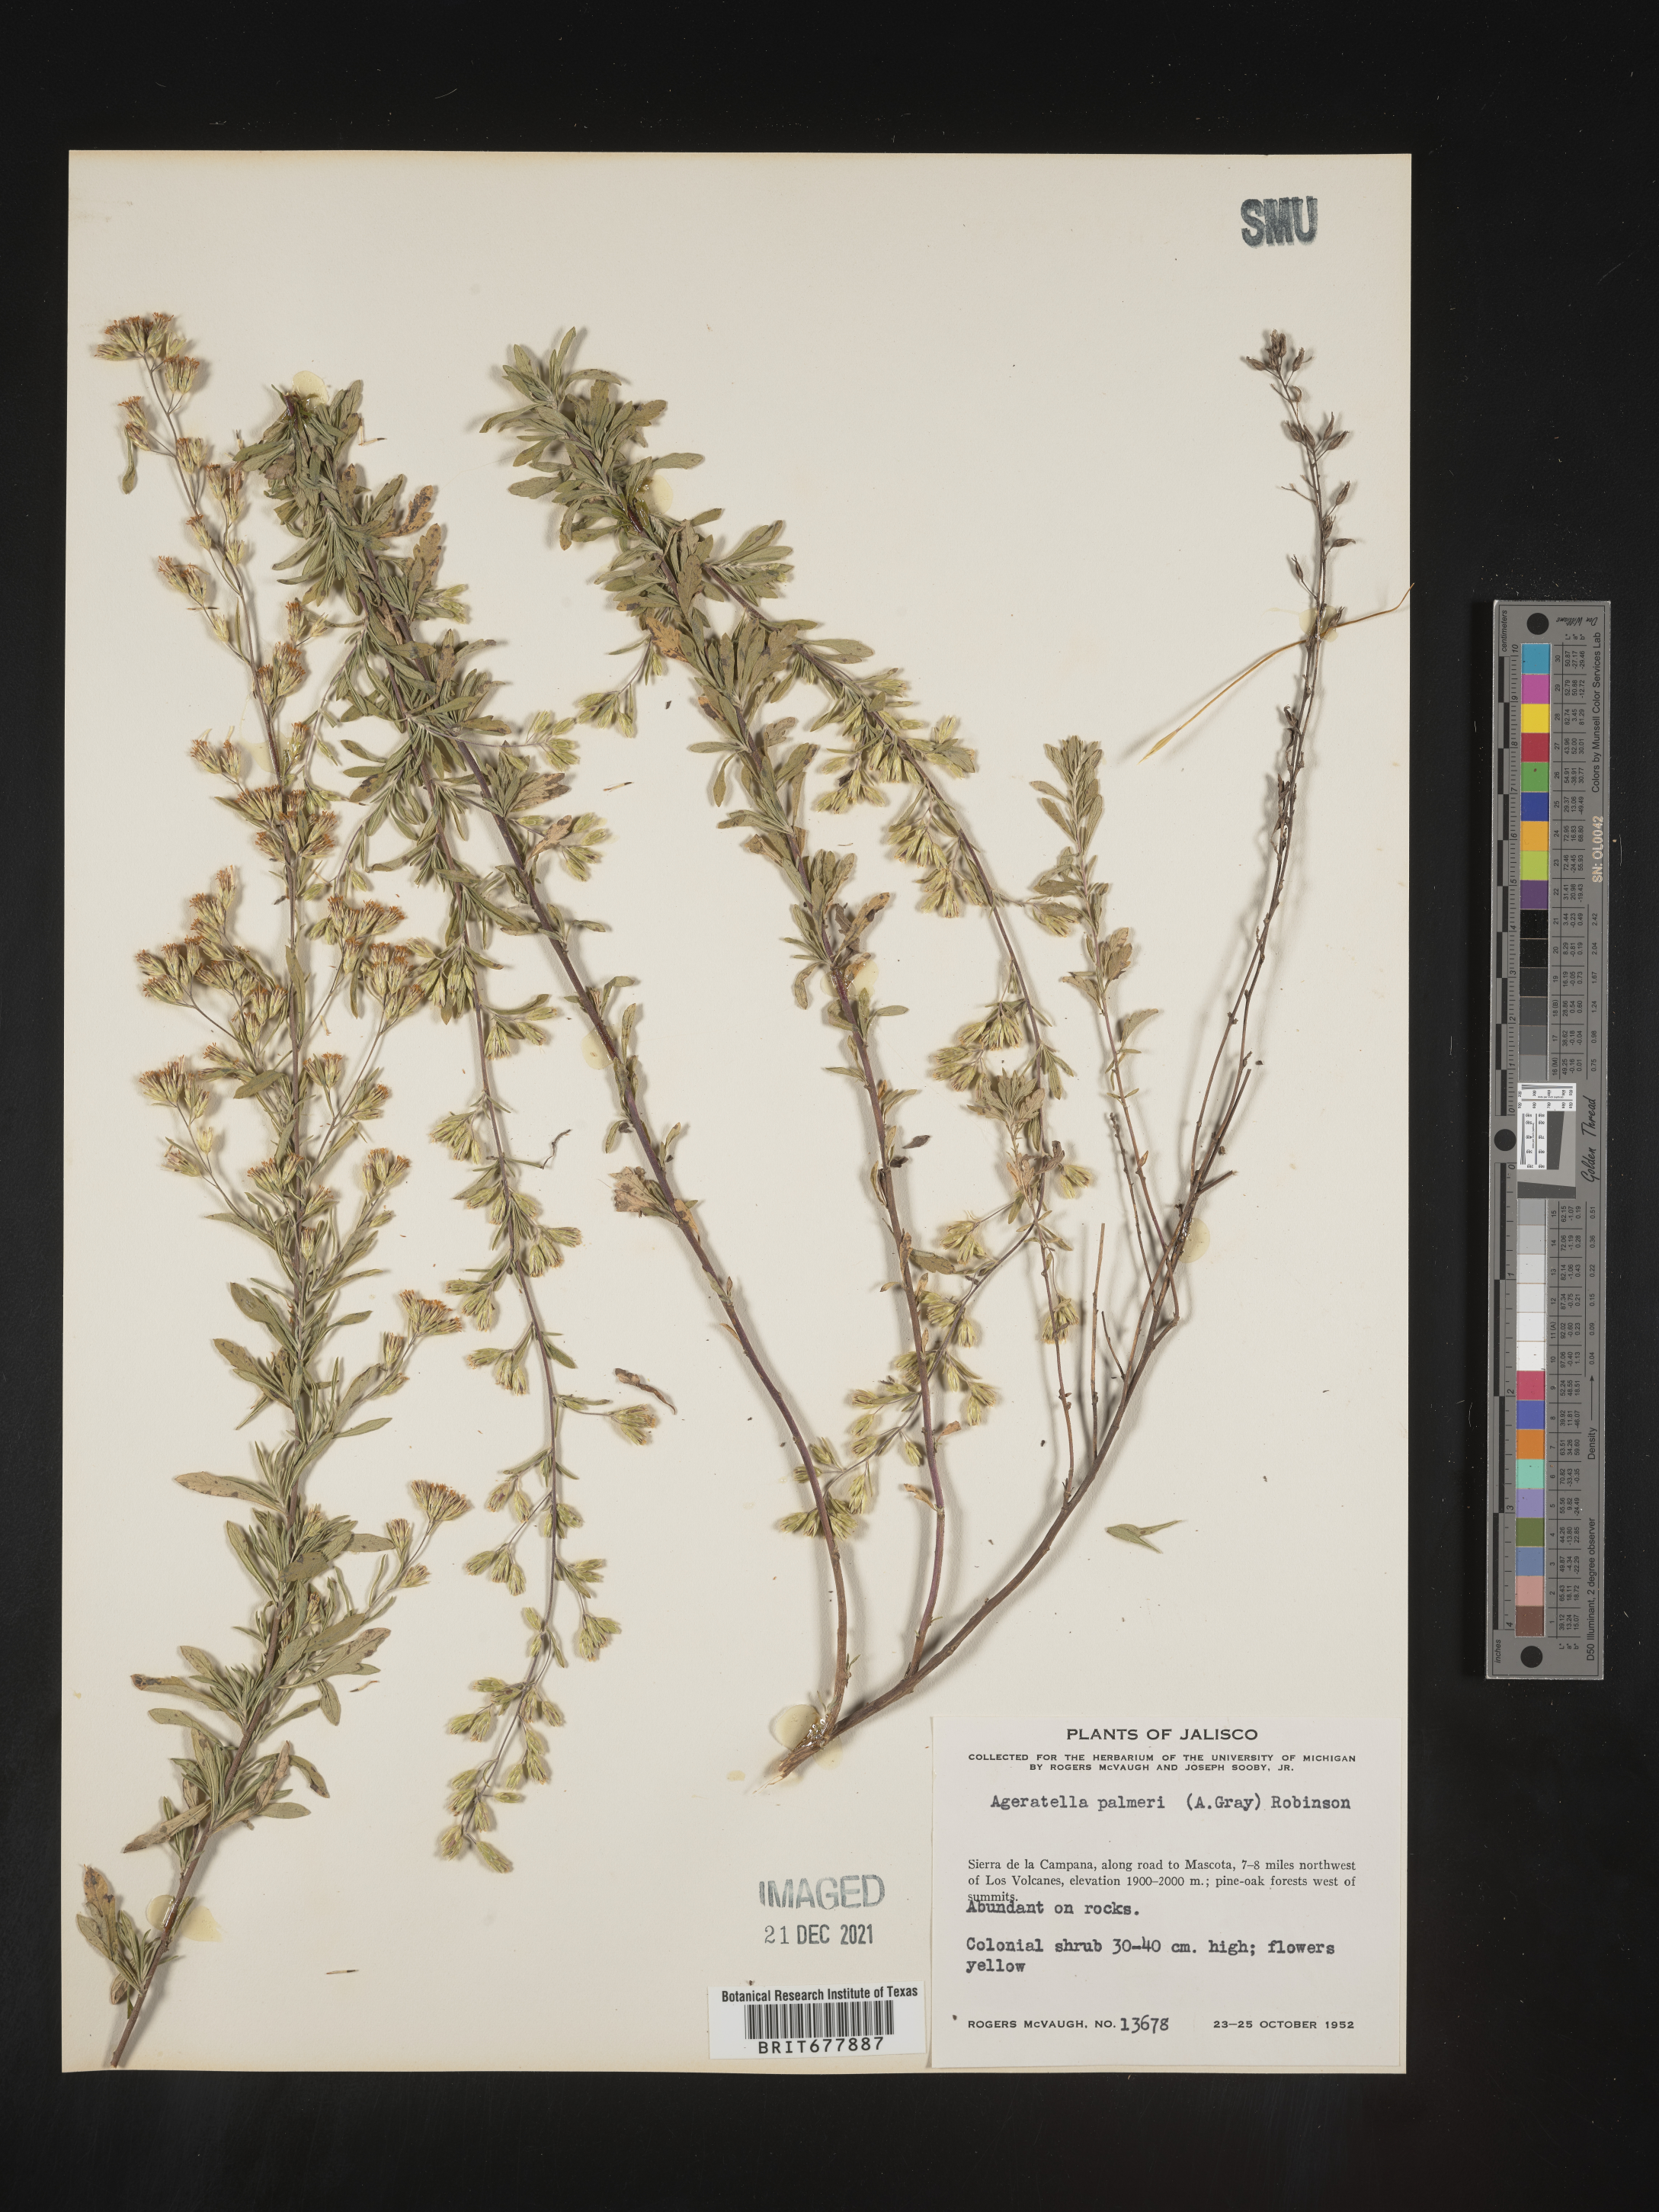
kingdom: Plantae
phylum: Tracheophyta
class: Magnoliopsida
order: Asterales
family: Asteraceae
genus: Ageratella
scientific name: Ageratella
